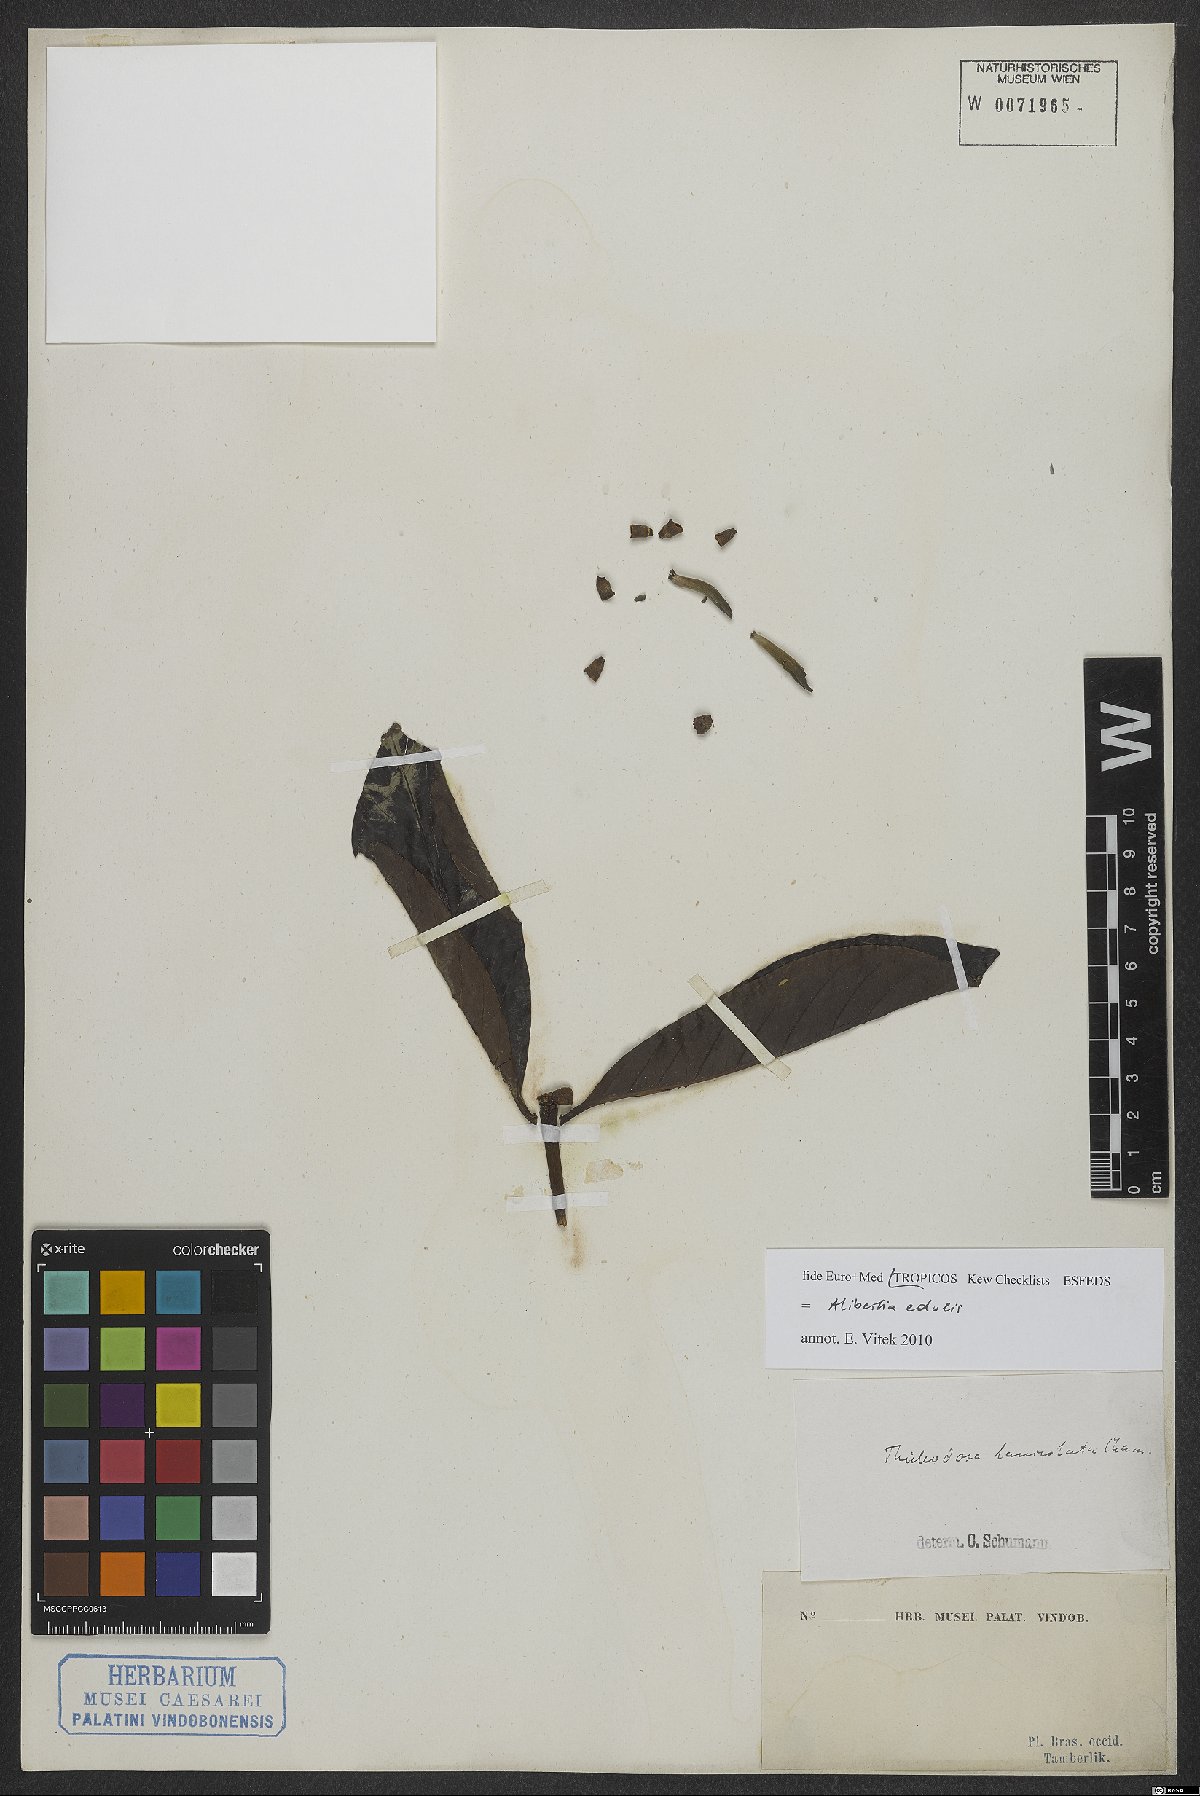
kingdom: Plantae
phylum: Tracheophyta
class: Magnoliopsida
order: Gentianales
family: Rubiaceae
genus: Alibertia
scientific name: Alibertia edulis
